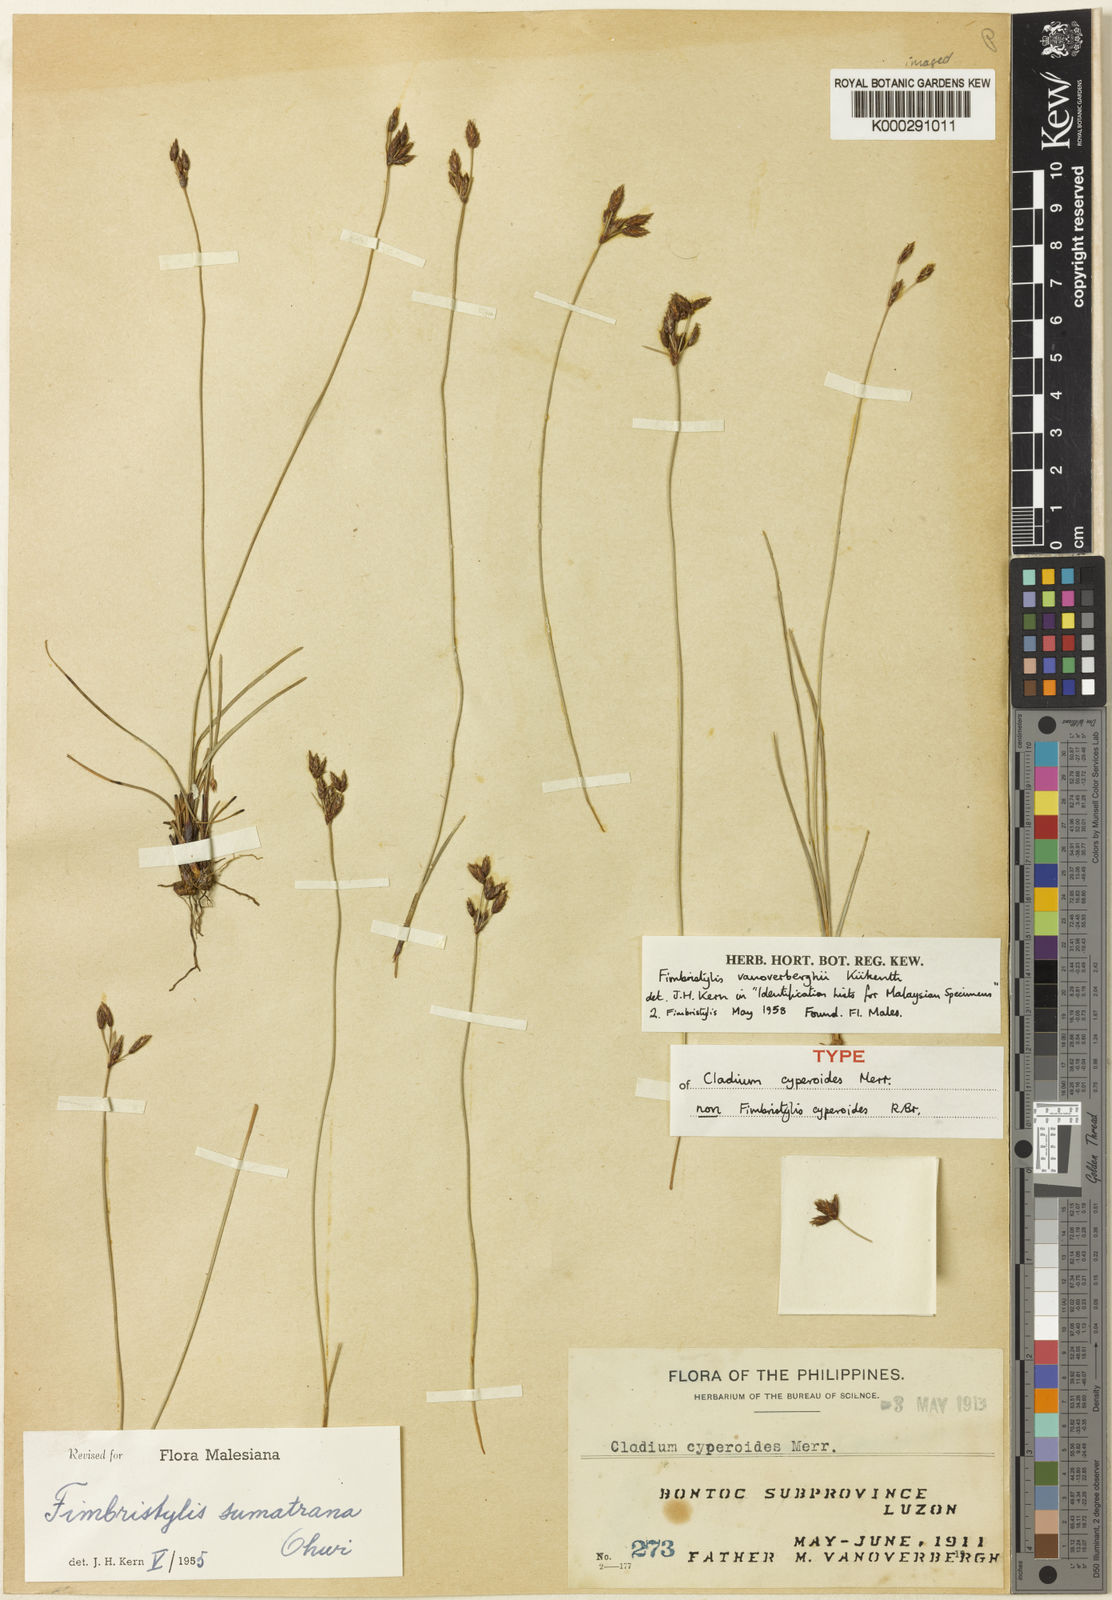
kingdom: Plantae
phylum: Tracheophyta
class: Liliopsida
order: Poales
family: Cyperaceae
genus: Fimbristylis
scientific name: Fimbristylis
